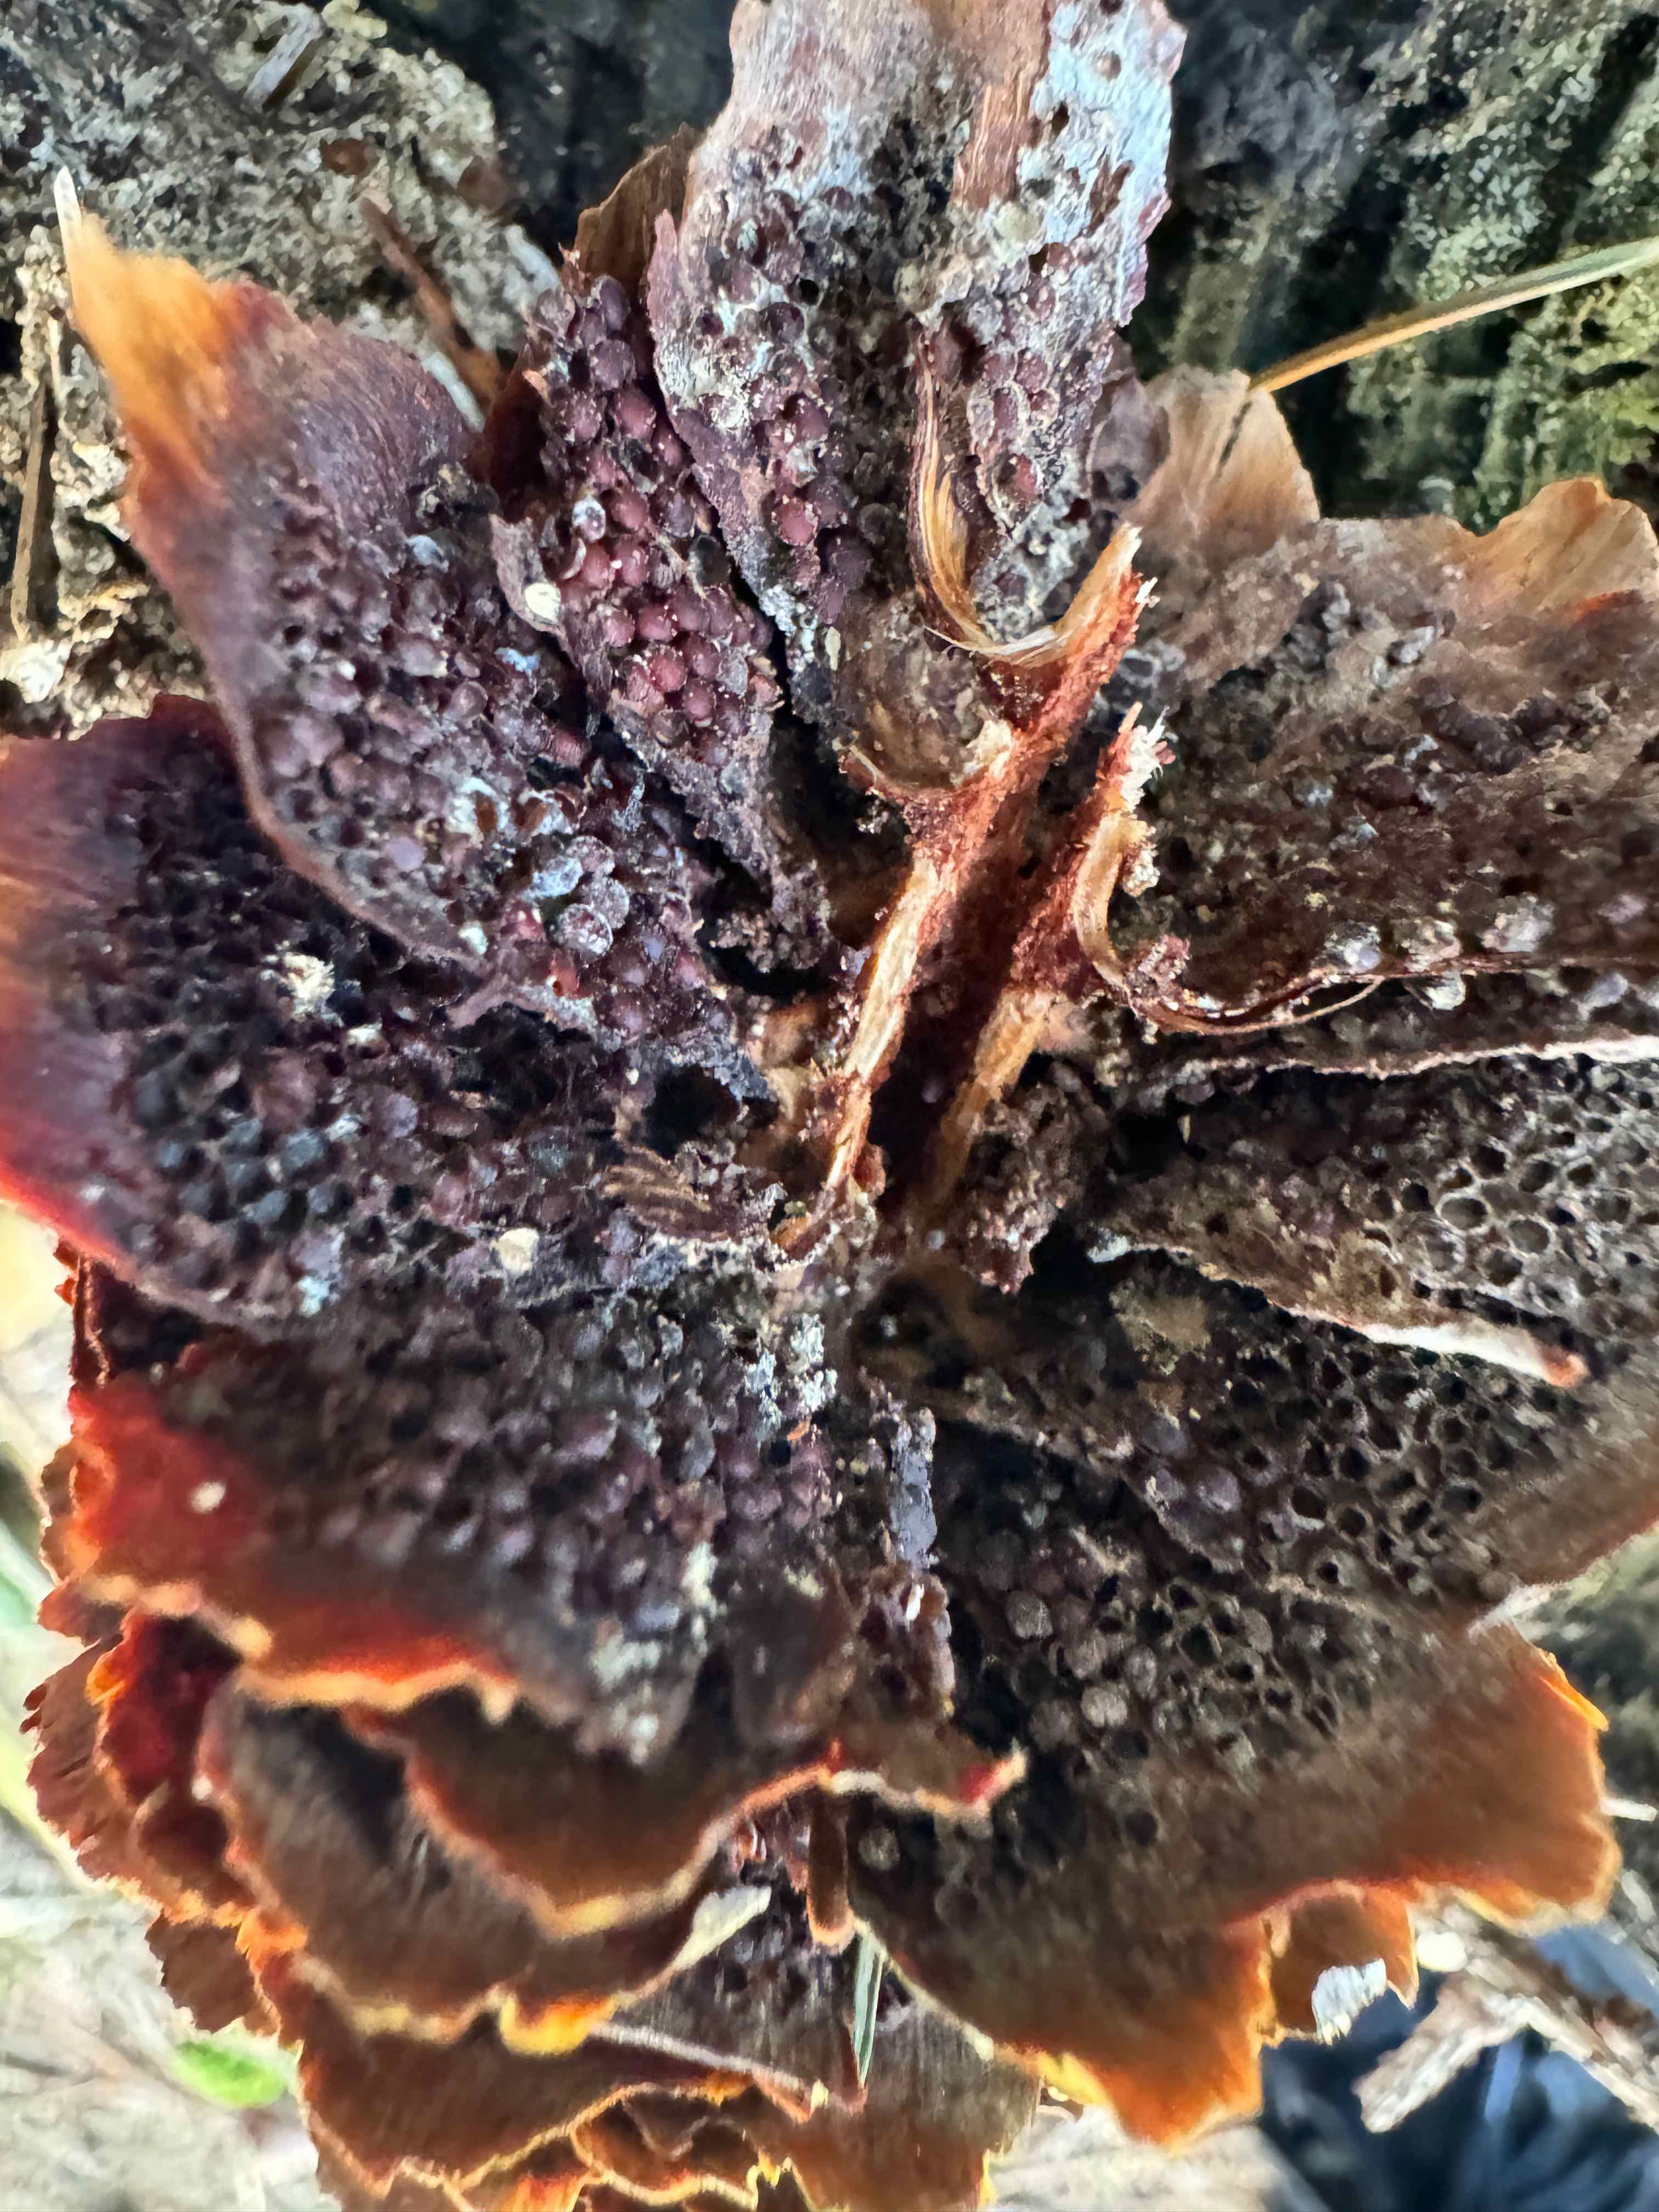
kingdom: Fungi
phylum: Basidiomycota
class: Pucciniomycetes
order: Pucciniales
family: Pucciniastraceae
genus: Thekopsora
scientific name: Thekopsora areolata
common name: grankogle-nålerust
